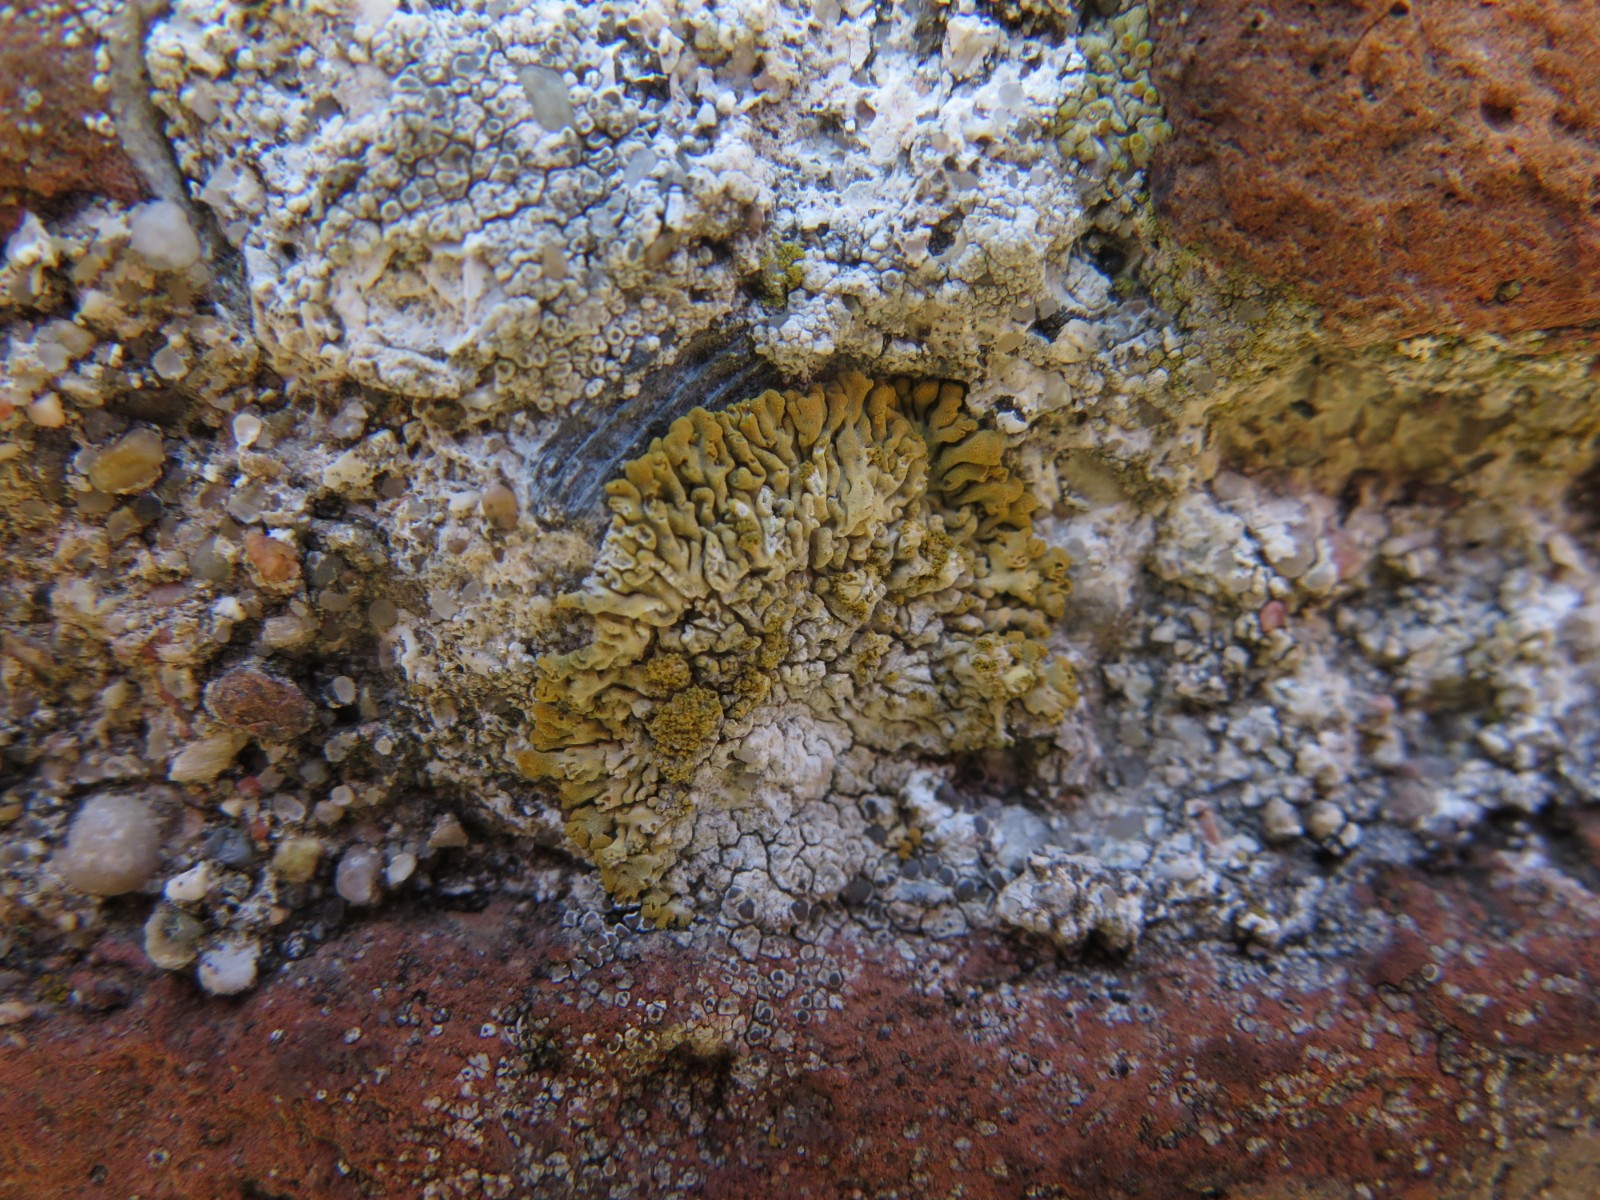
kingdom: Fungi
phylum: Ascomycota
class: Lecanoromycetes
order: Teloschistales
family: Teloschistaceae
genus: Calogaya
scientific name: Calogaya decipiens
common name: knudret orangelav
